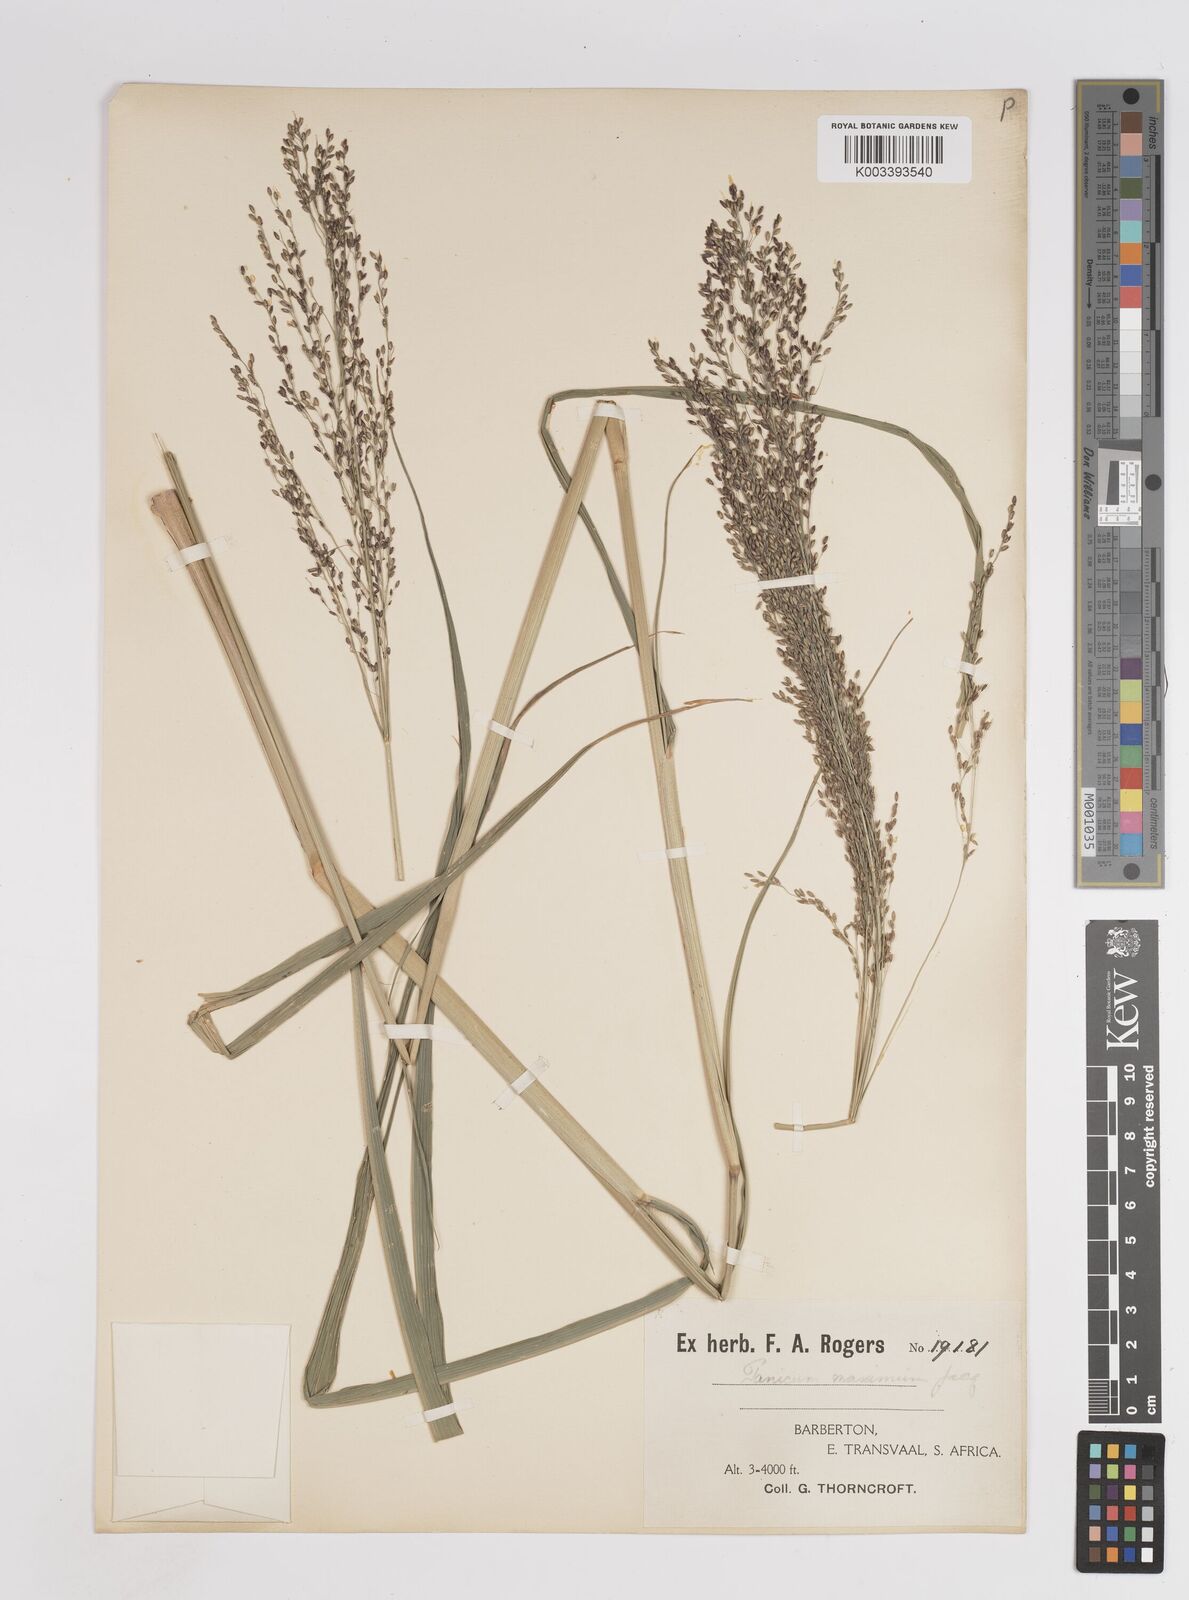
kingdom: Plantae
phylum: Tracheophyta
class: Liliopsida
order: Poales
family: Poaceae
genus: Megathyrsus
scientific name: Megathyrsus maximus
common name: Guineagrass
